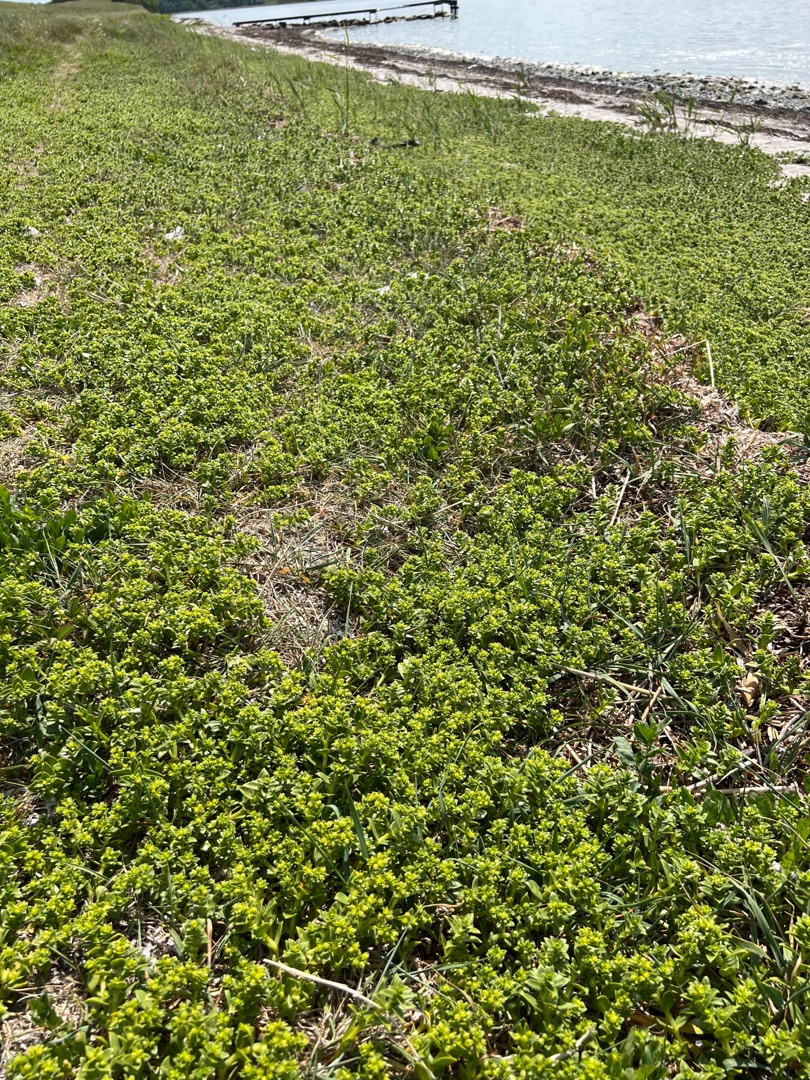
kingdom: Plantae
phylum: Tracheophyta
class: Magnoliopsida
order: Caryophyllales
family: Caryophyllaceae
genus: Honckenya
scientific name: Honckenya peploides
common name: Strandarve
